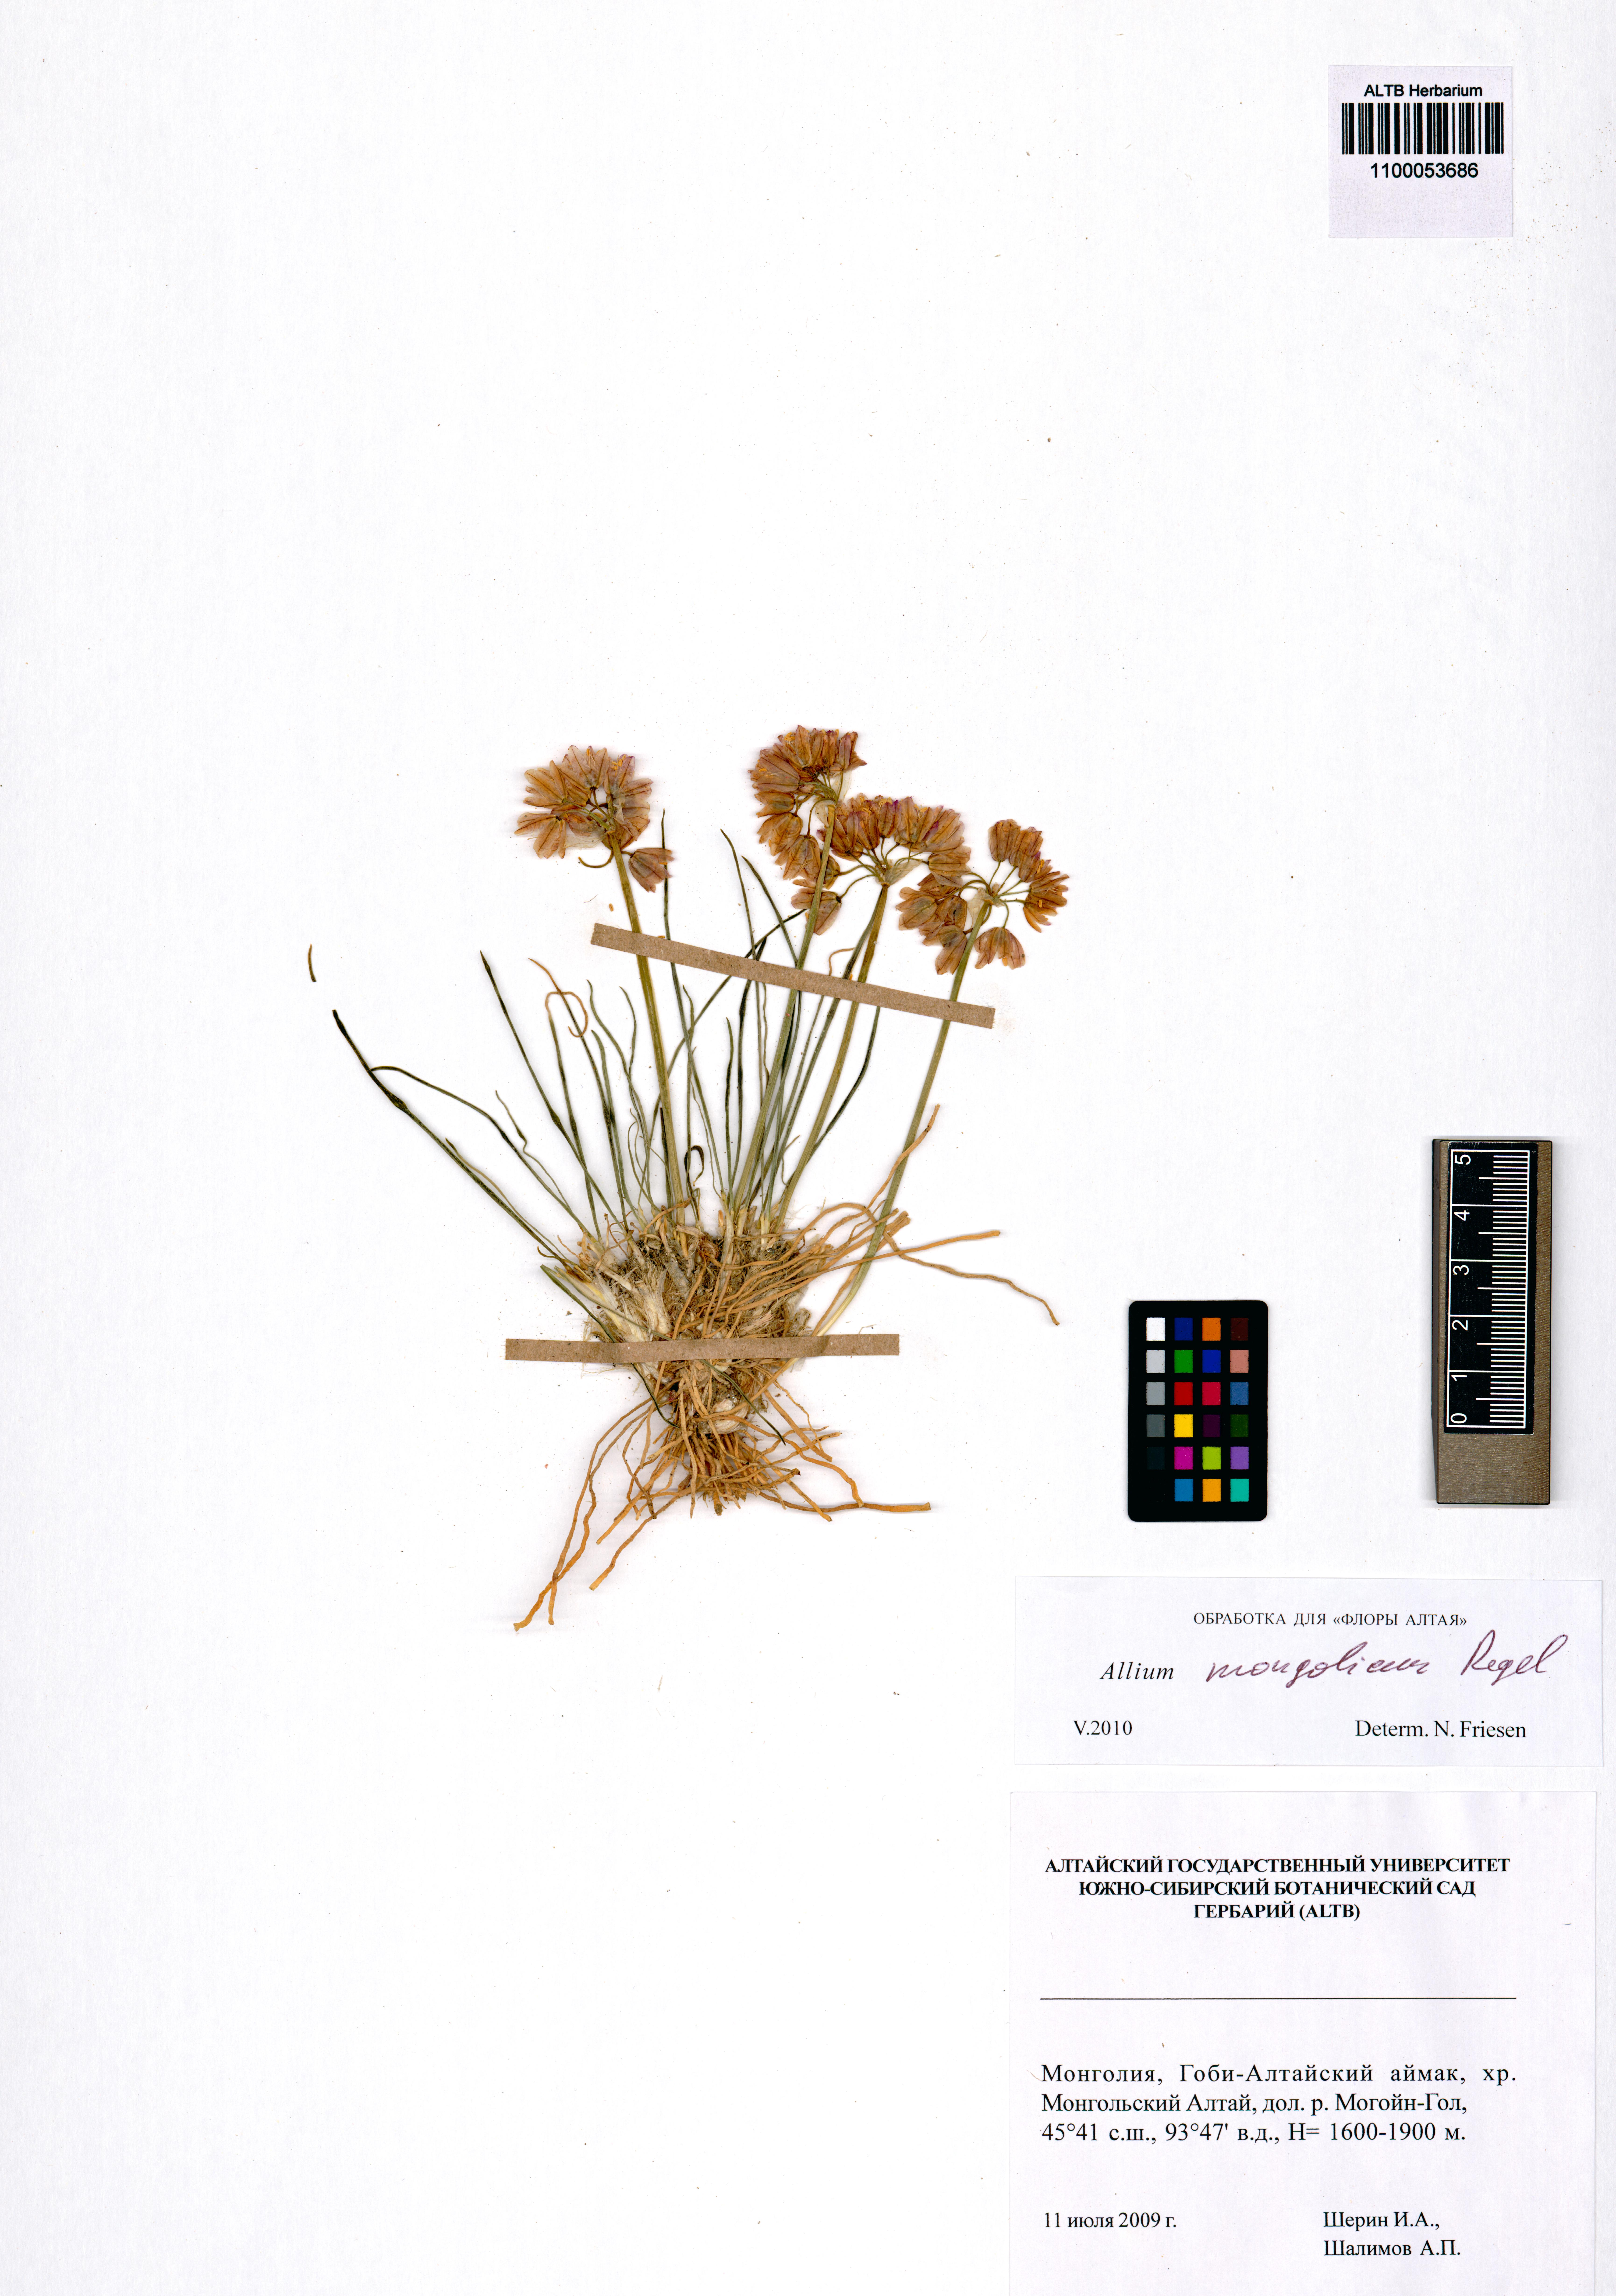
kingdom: Plantae
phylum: Tracheophyta
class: Liliopsida
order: Asparagales
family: Amaryllidaceae
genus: Allium
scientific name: Allium mongolicum
